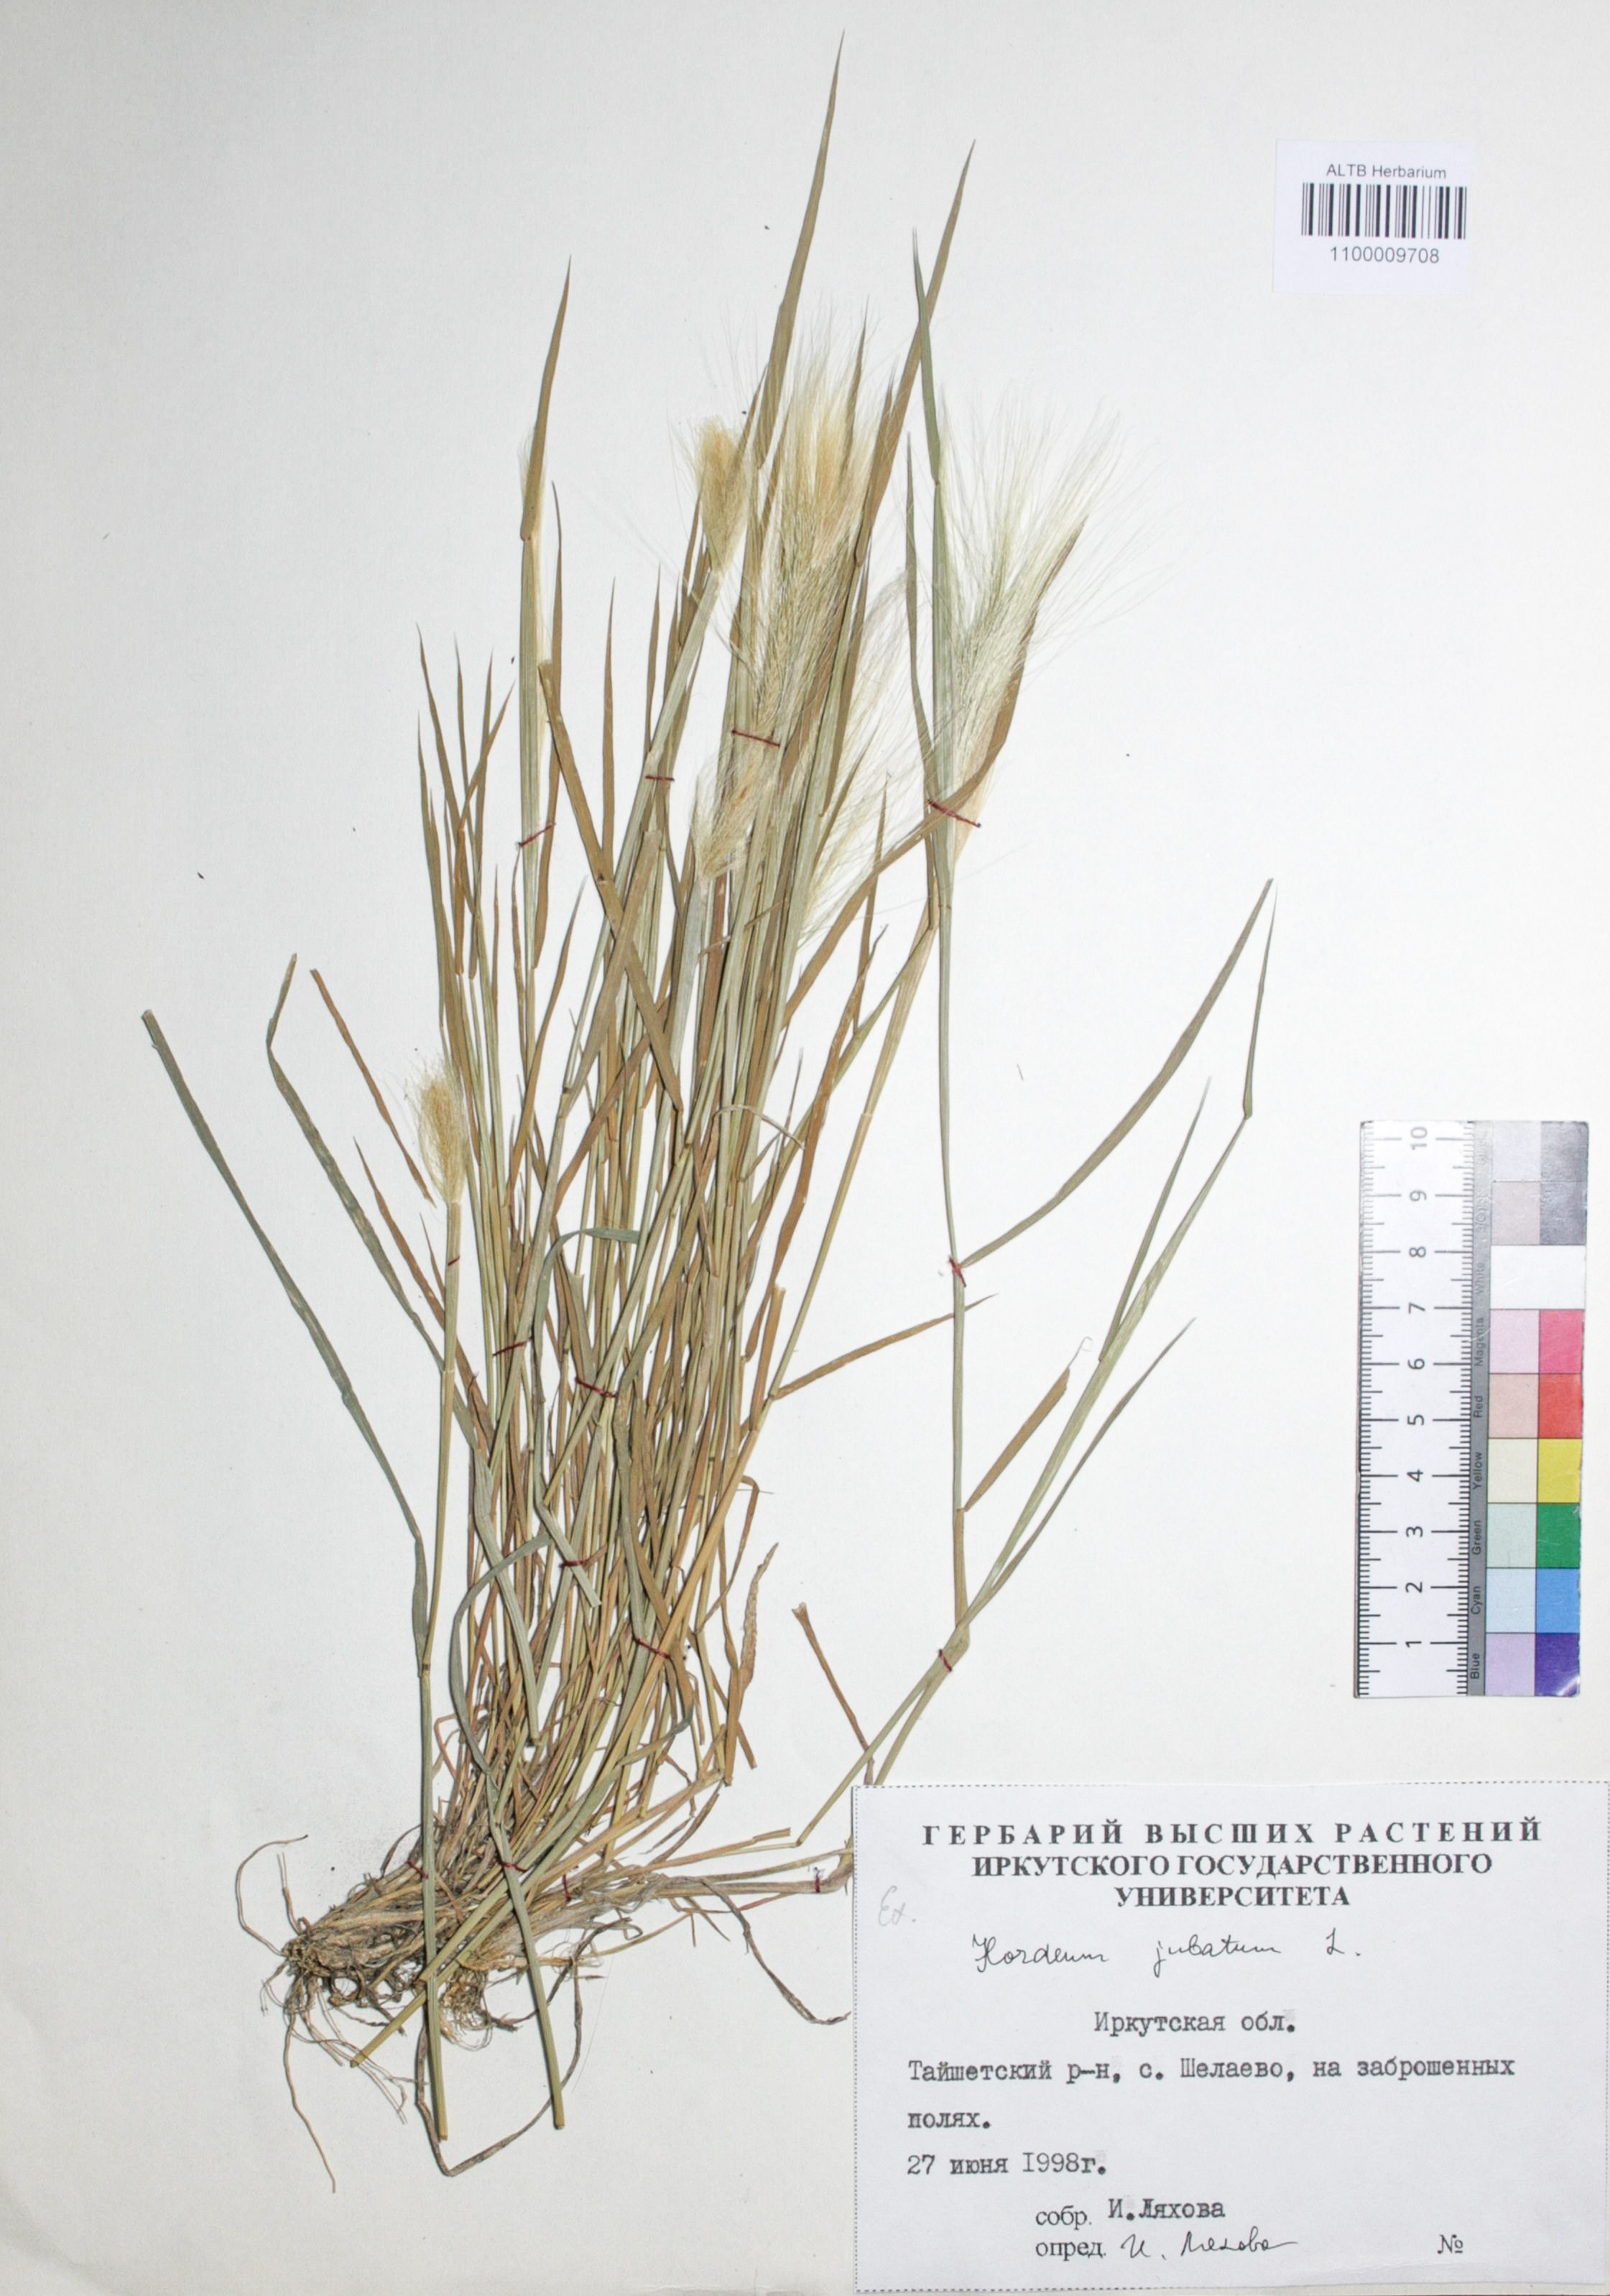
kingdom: Plantae
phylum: Tracheophyta
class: Liliopsida
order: Poales
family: Poaceae
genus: Hordeum
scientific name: Hordeum jubatum
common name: Foxtail barley
